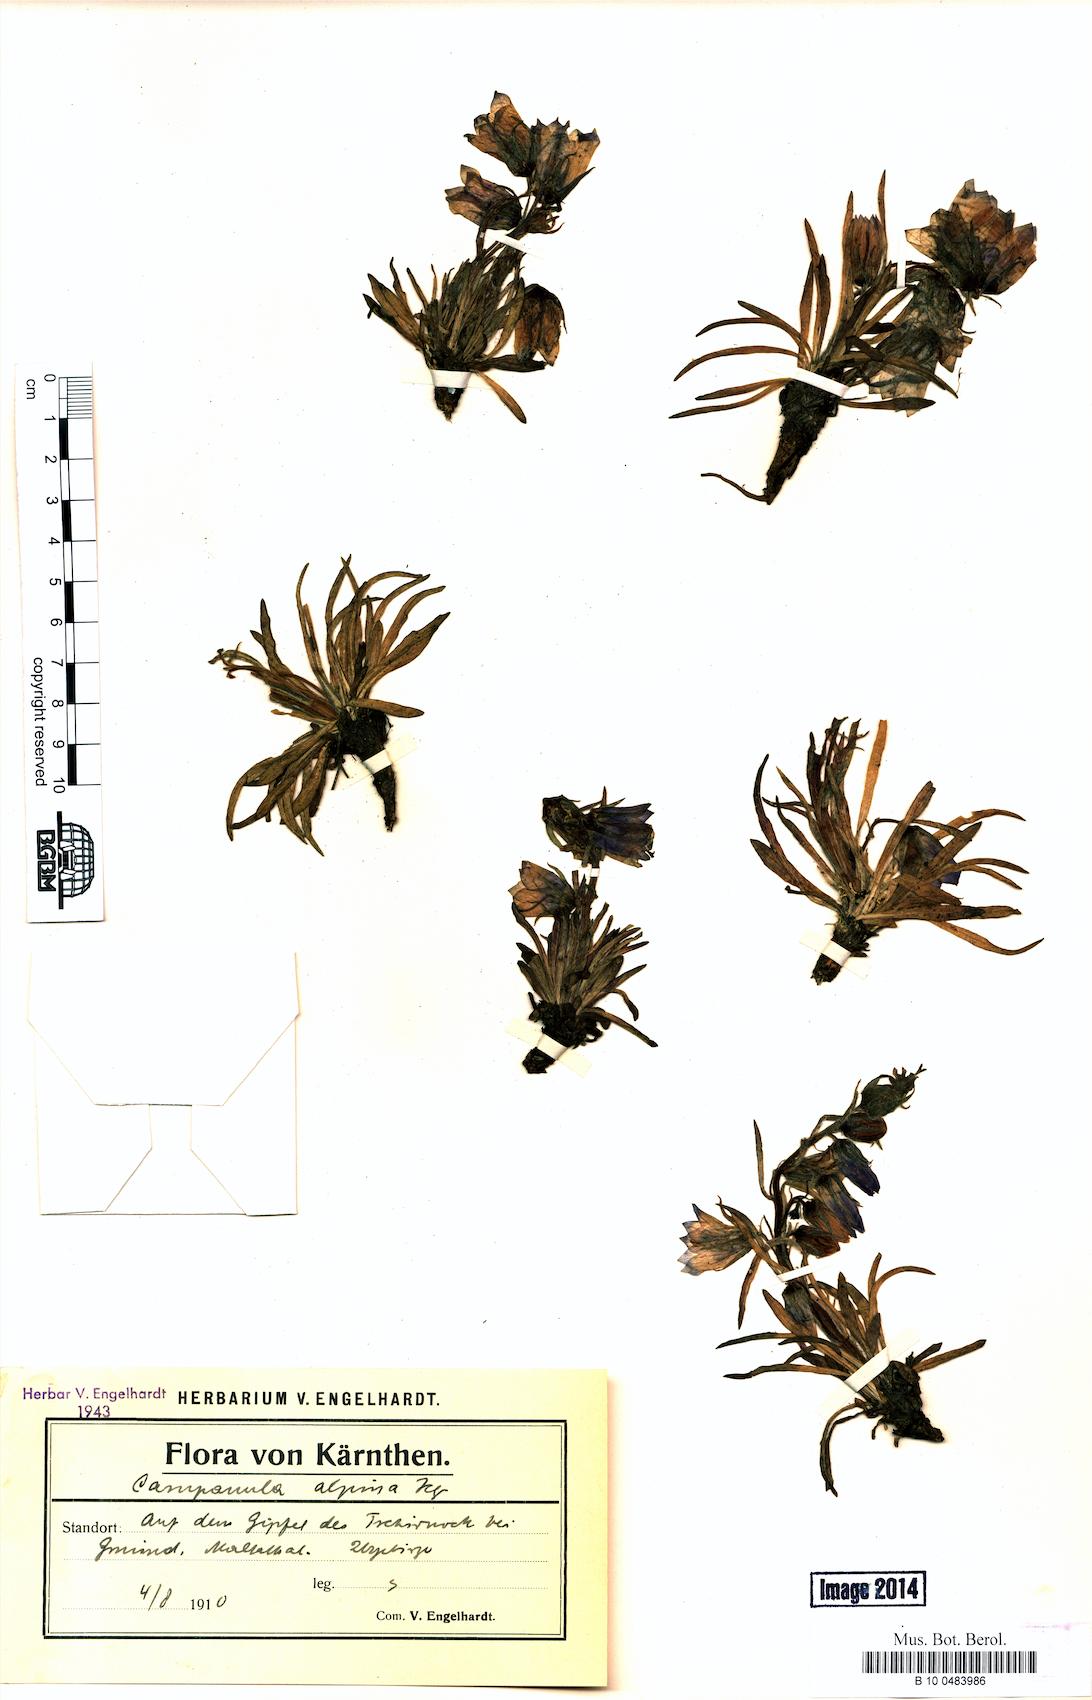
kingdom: Plantae
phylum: Tracheophyta
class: Magnoliopsida
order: Asterales
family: Campanulaceae
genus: Campanula
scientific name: Campanula alpina
